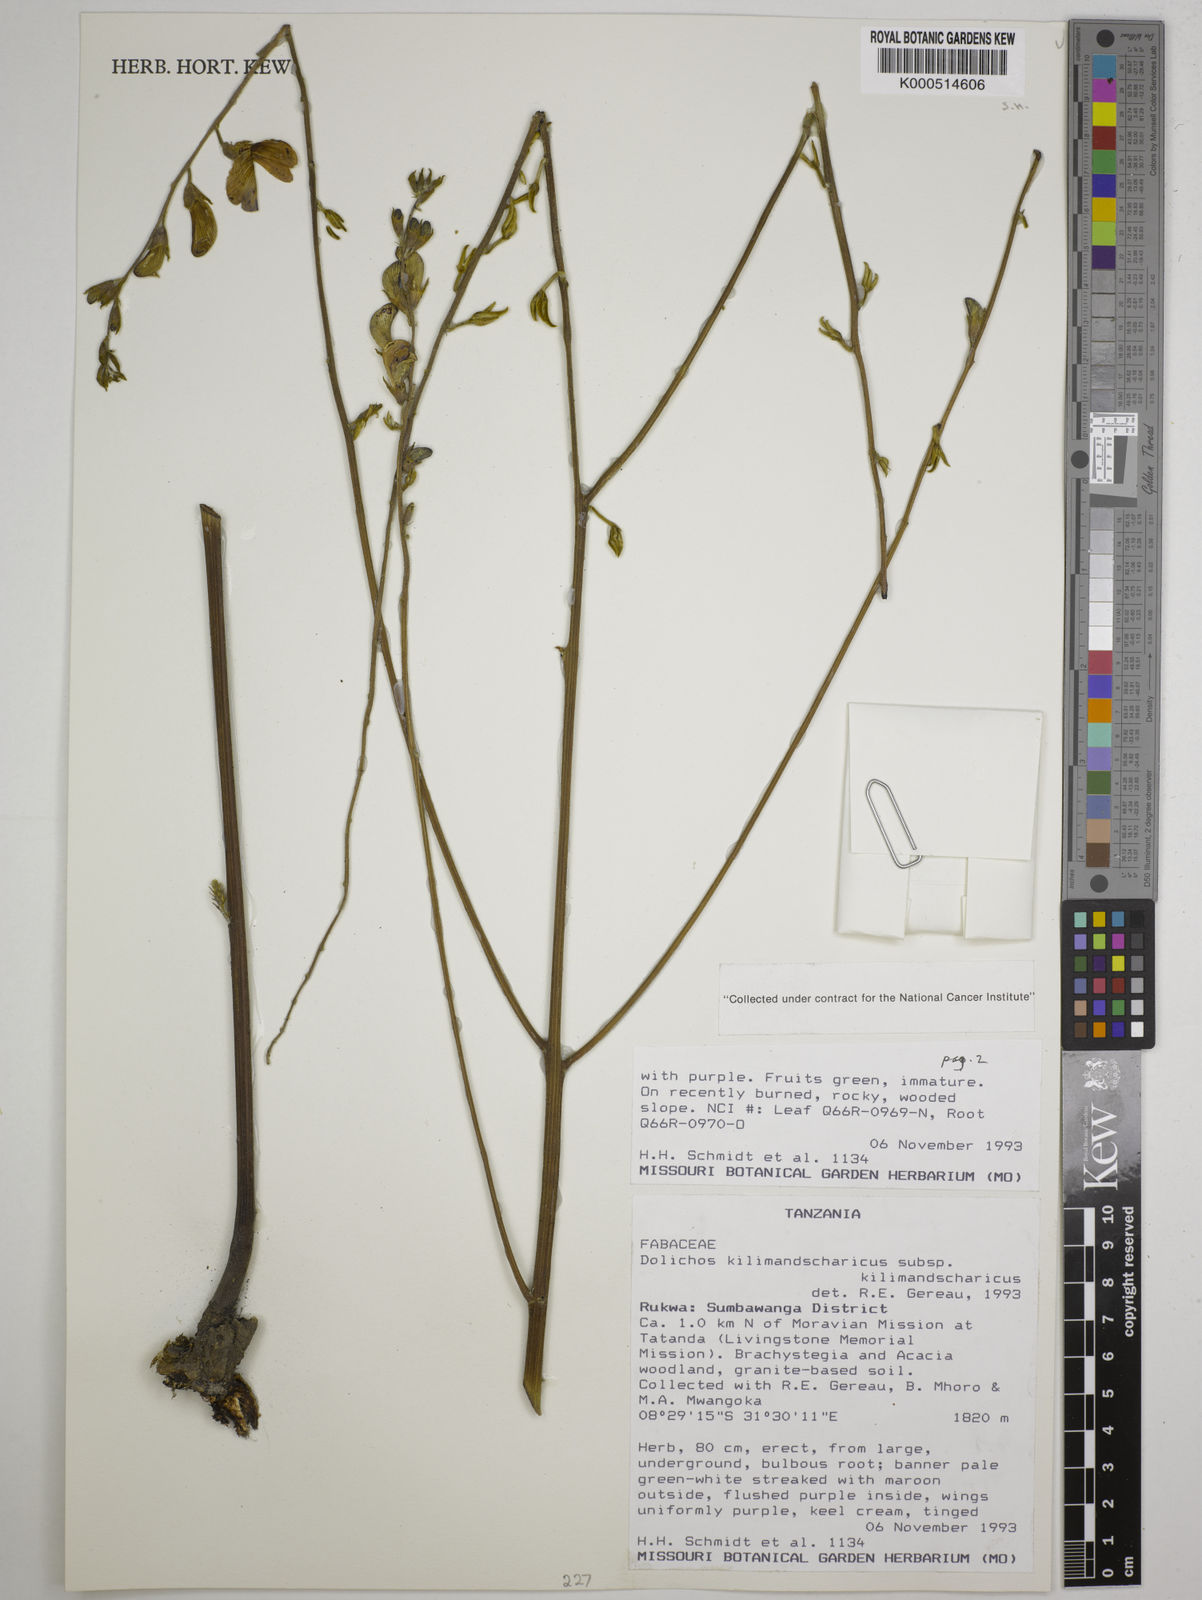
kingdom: Plantae
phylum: Tracheophyta
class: Magnoliopsida
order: Fabales
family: Fabaceae
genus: Dolichos
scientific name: Dolichos
